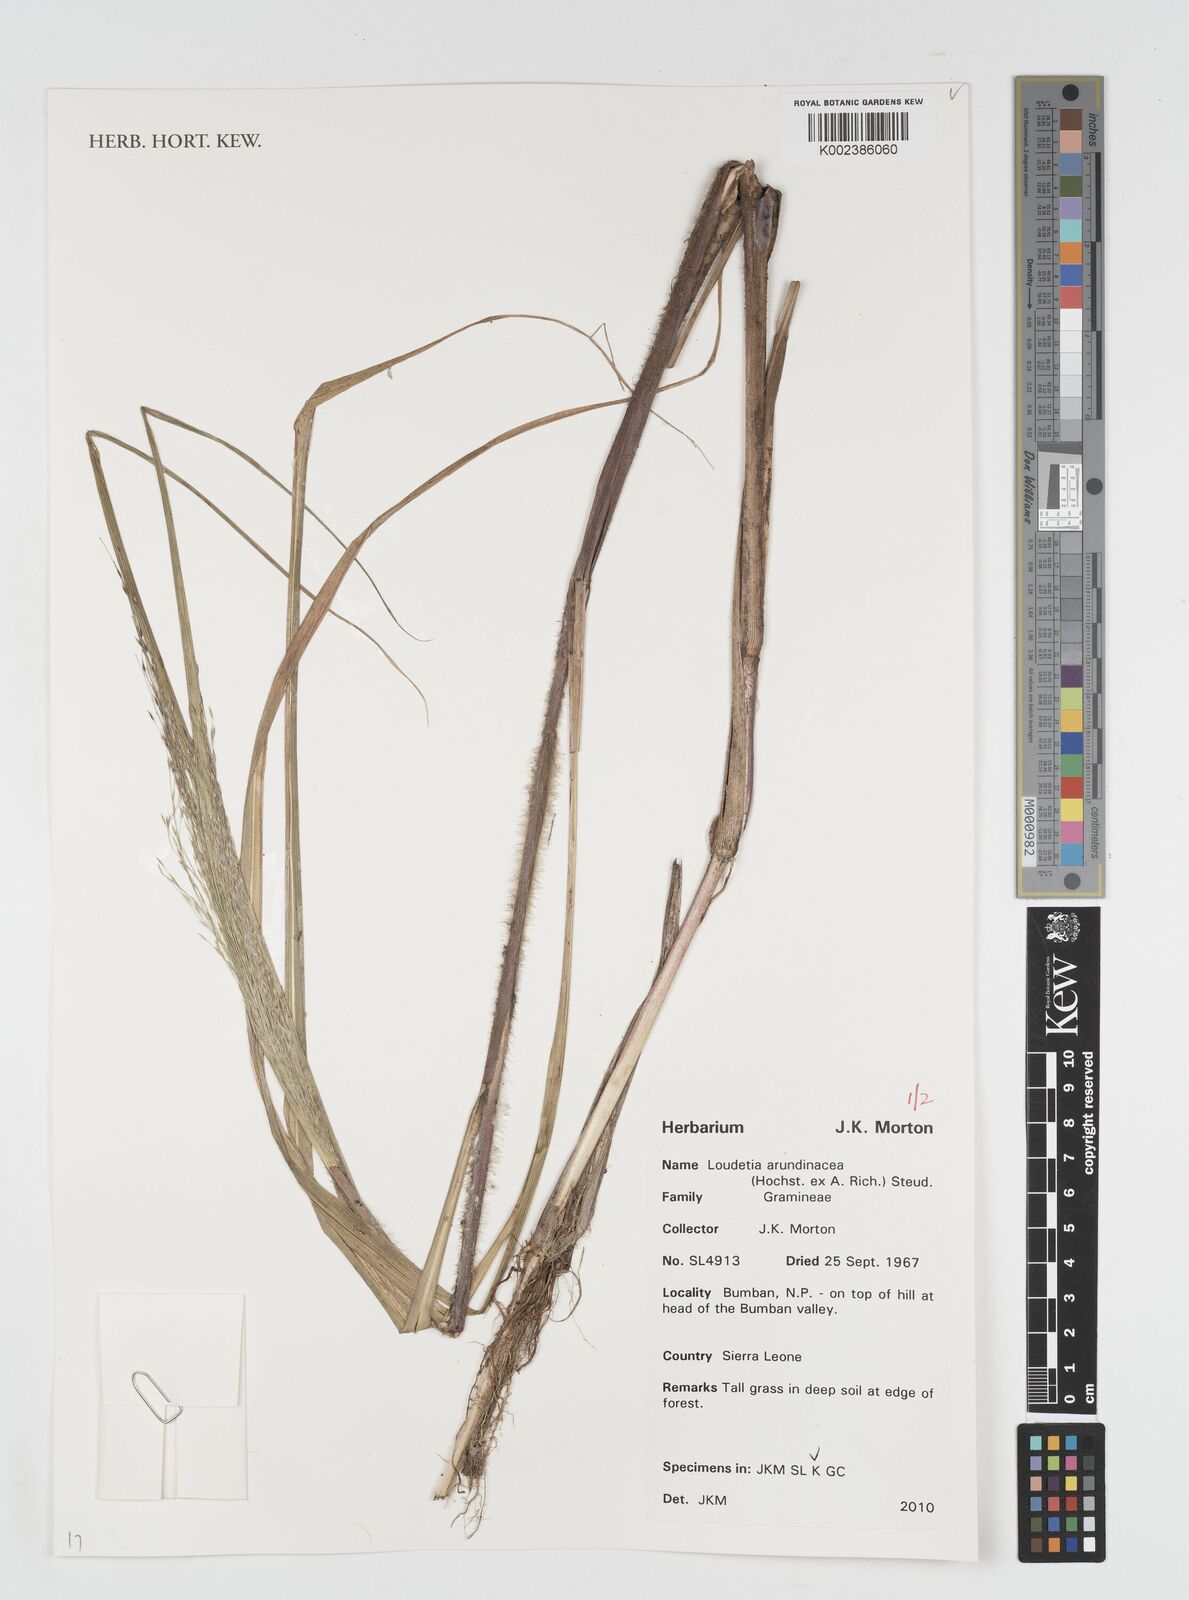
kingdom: Plantae
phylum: Tracheophyta
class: Liliopsida
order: Poales
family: Poaceae
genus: Loudetia
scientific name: Loudetia arundinacea
